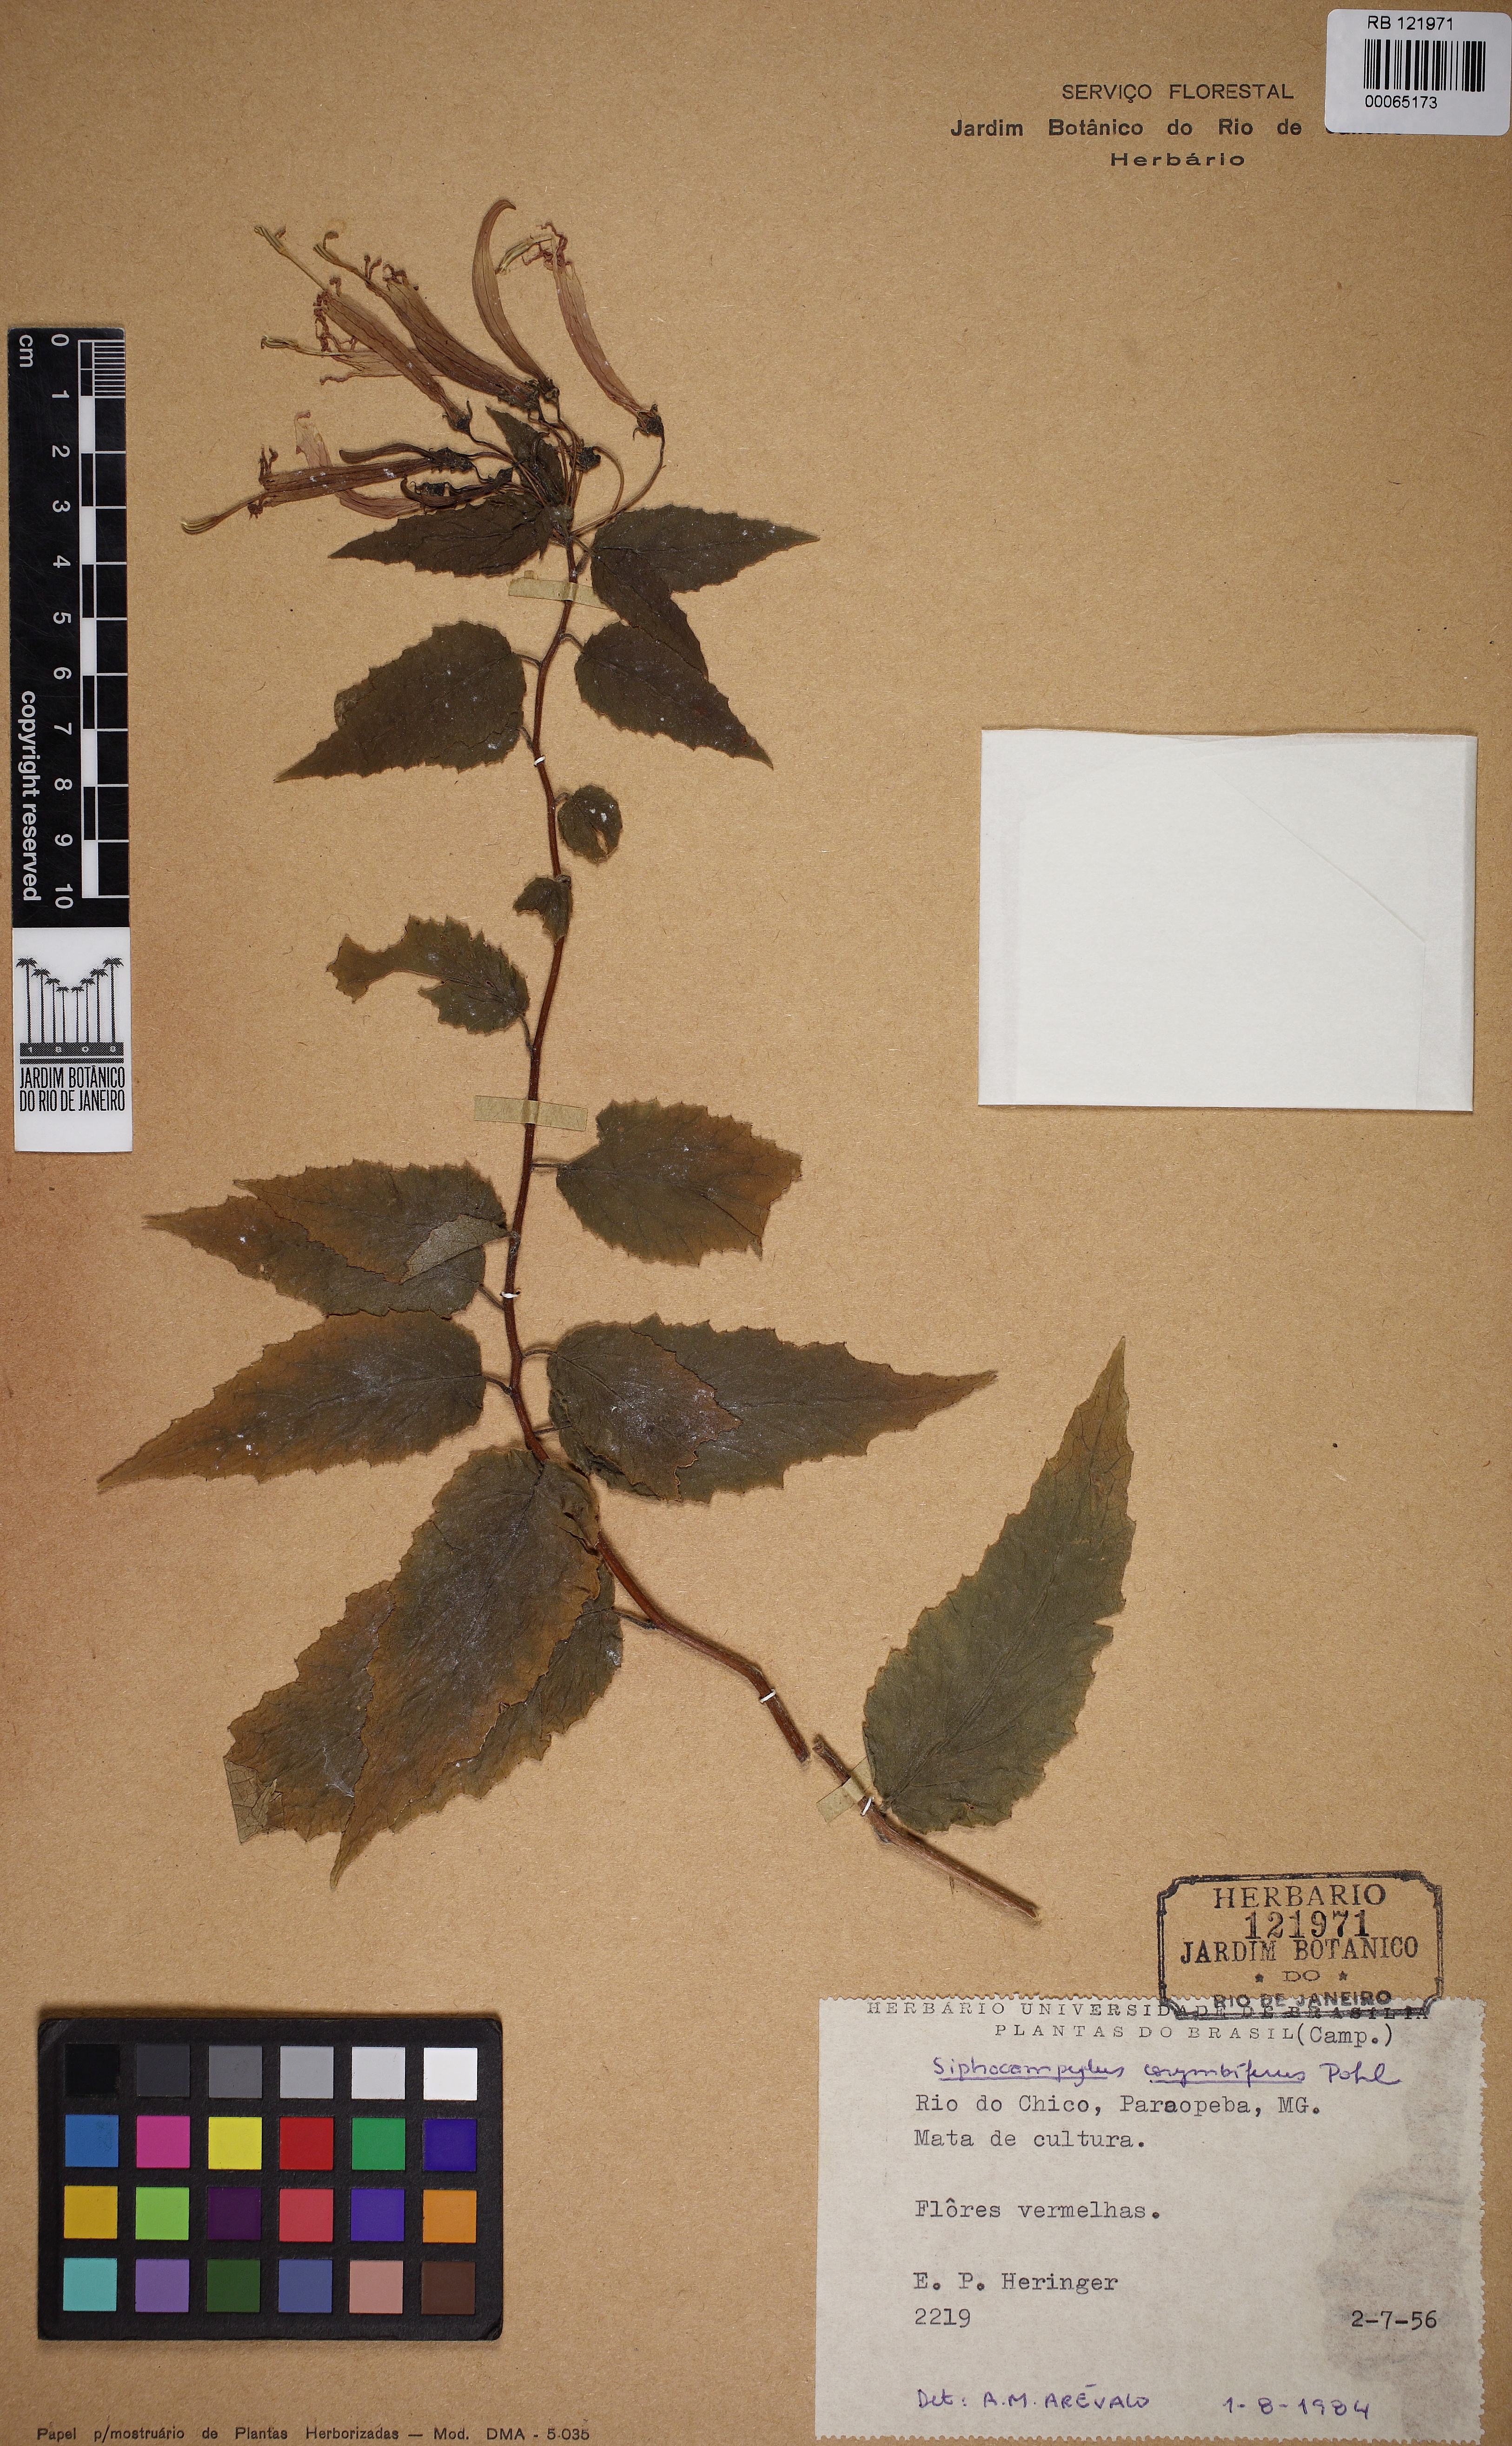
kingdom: Plantae
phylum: Tracheophyta
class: Magnoliopsida
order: Asterales
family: Campanulaceae
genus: Siphocampylus
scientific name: Siphocampylus corymbiferus
